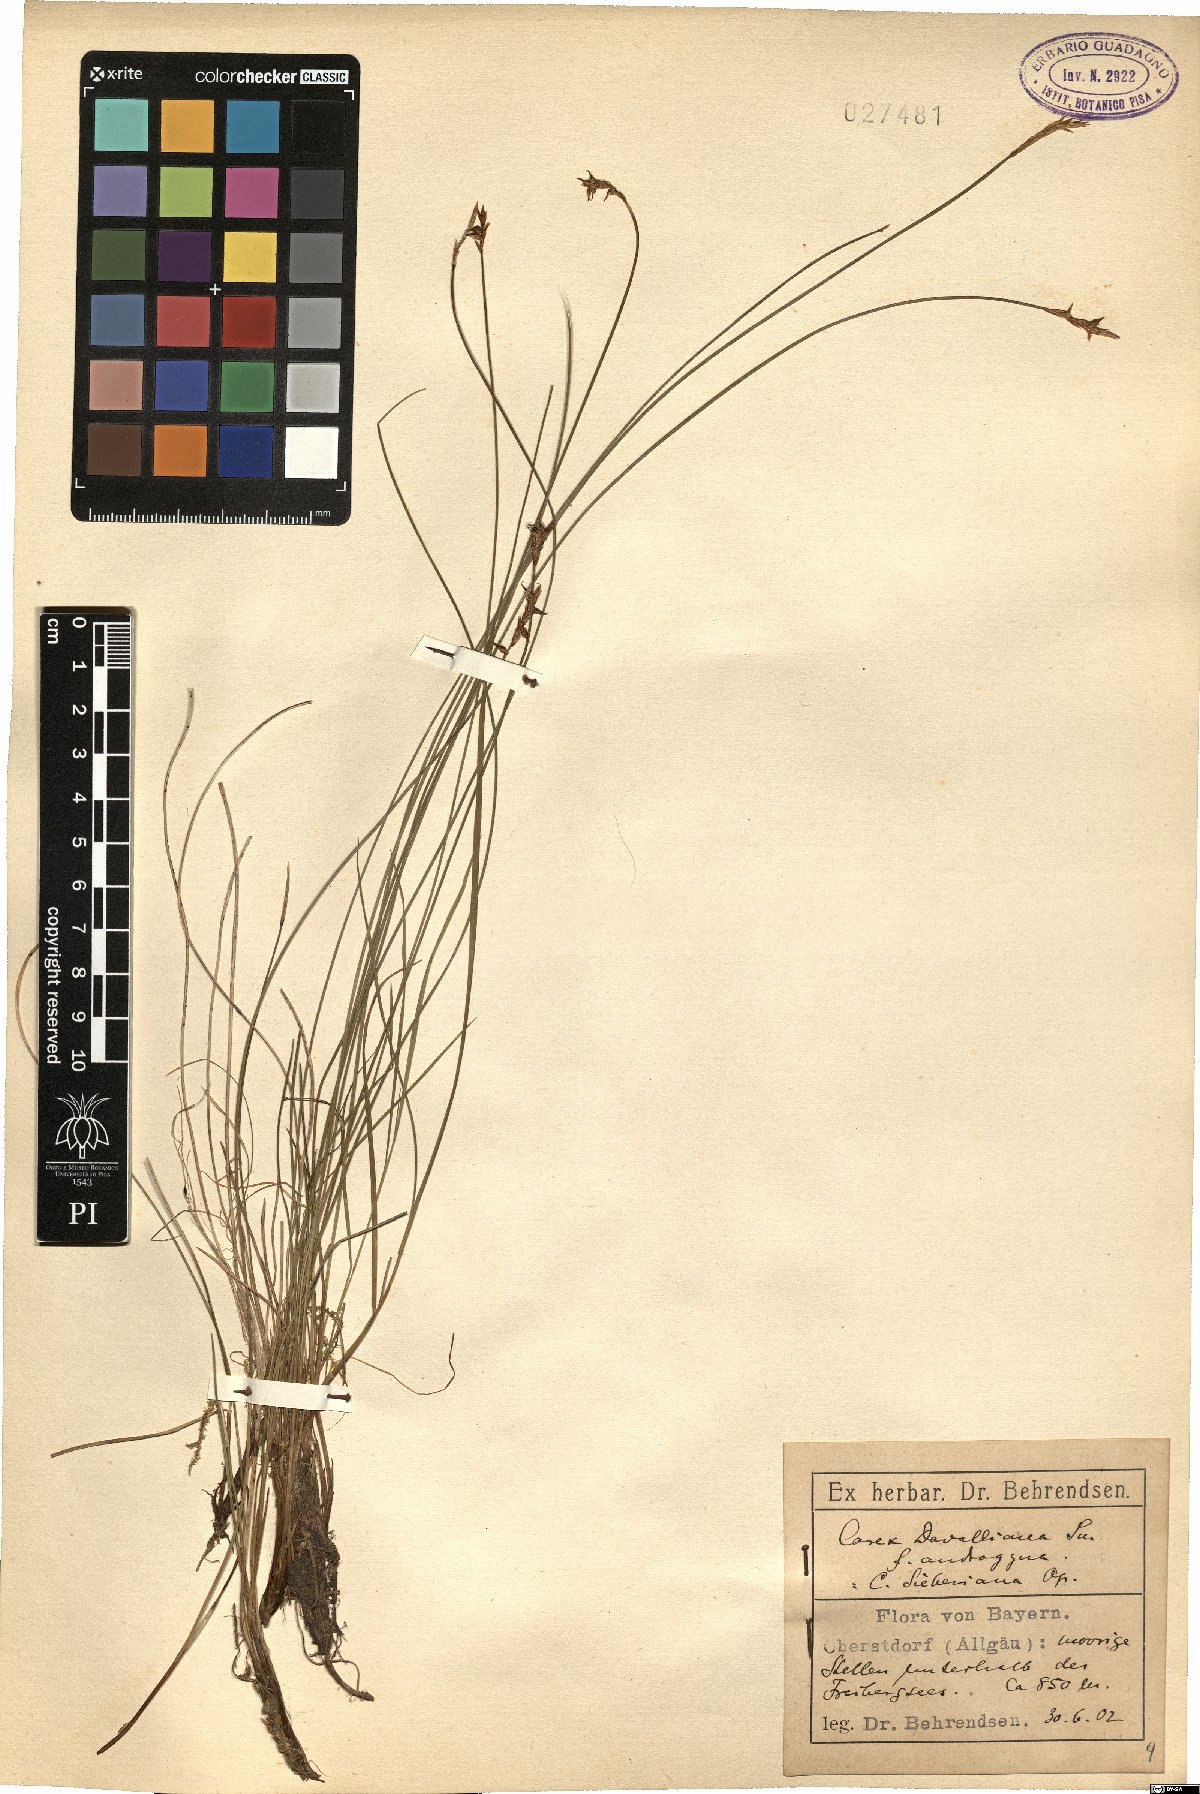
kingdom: Plantae
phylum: Tracheophyta
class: Liliopsida
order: Poales
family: Cyperaceae
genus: Carex
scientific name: Carex davalliana
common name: Davall's sedge
